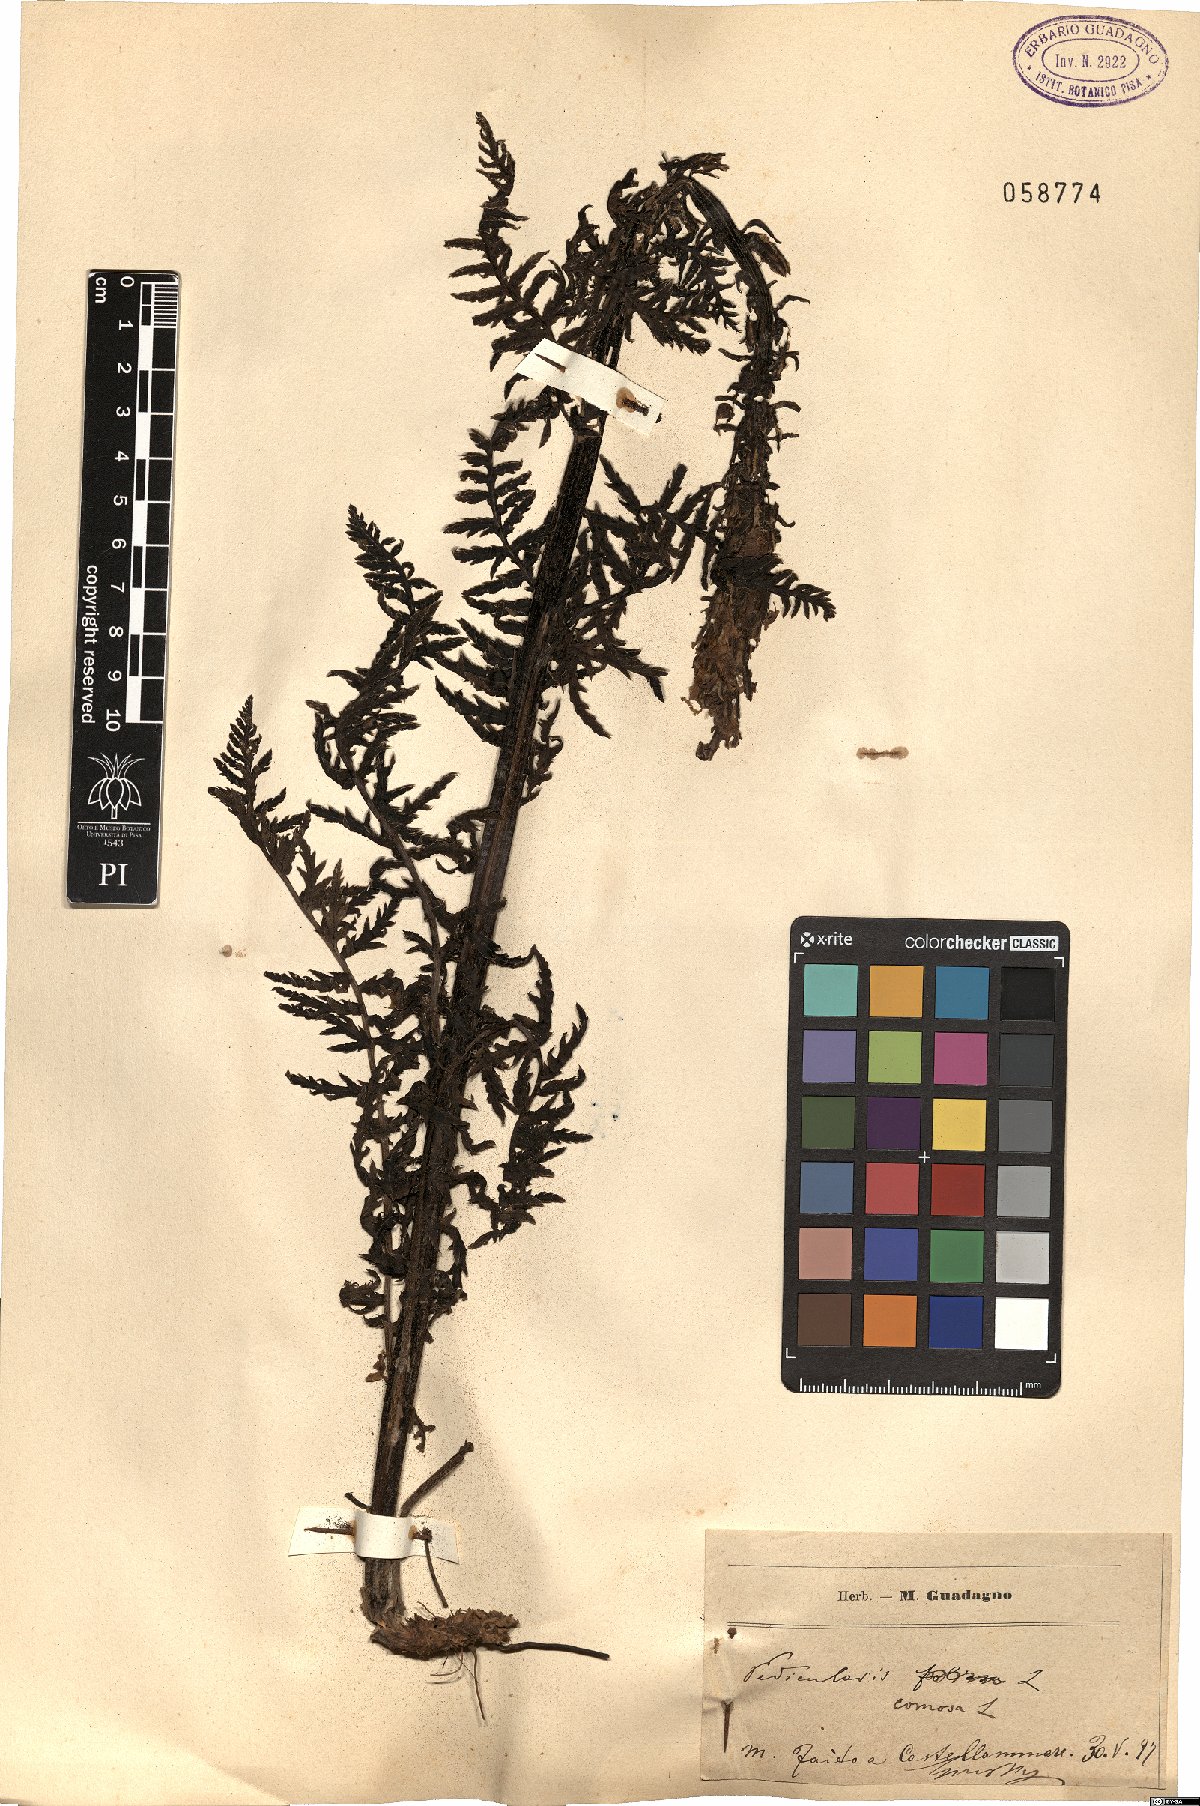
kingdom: Plantae
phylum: Tracheophyta
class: Magnoliopsida
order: Lamiales
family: Orobanchaceae
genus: Pedicularis
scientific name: Pedicularis comosa
